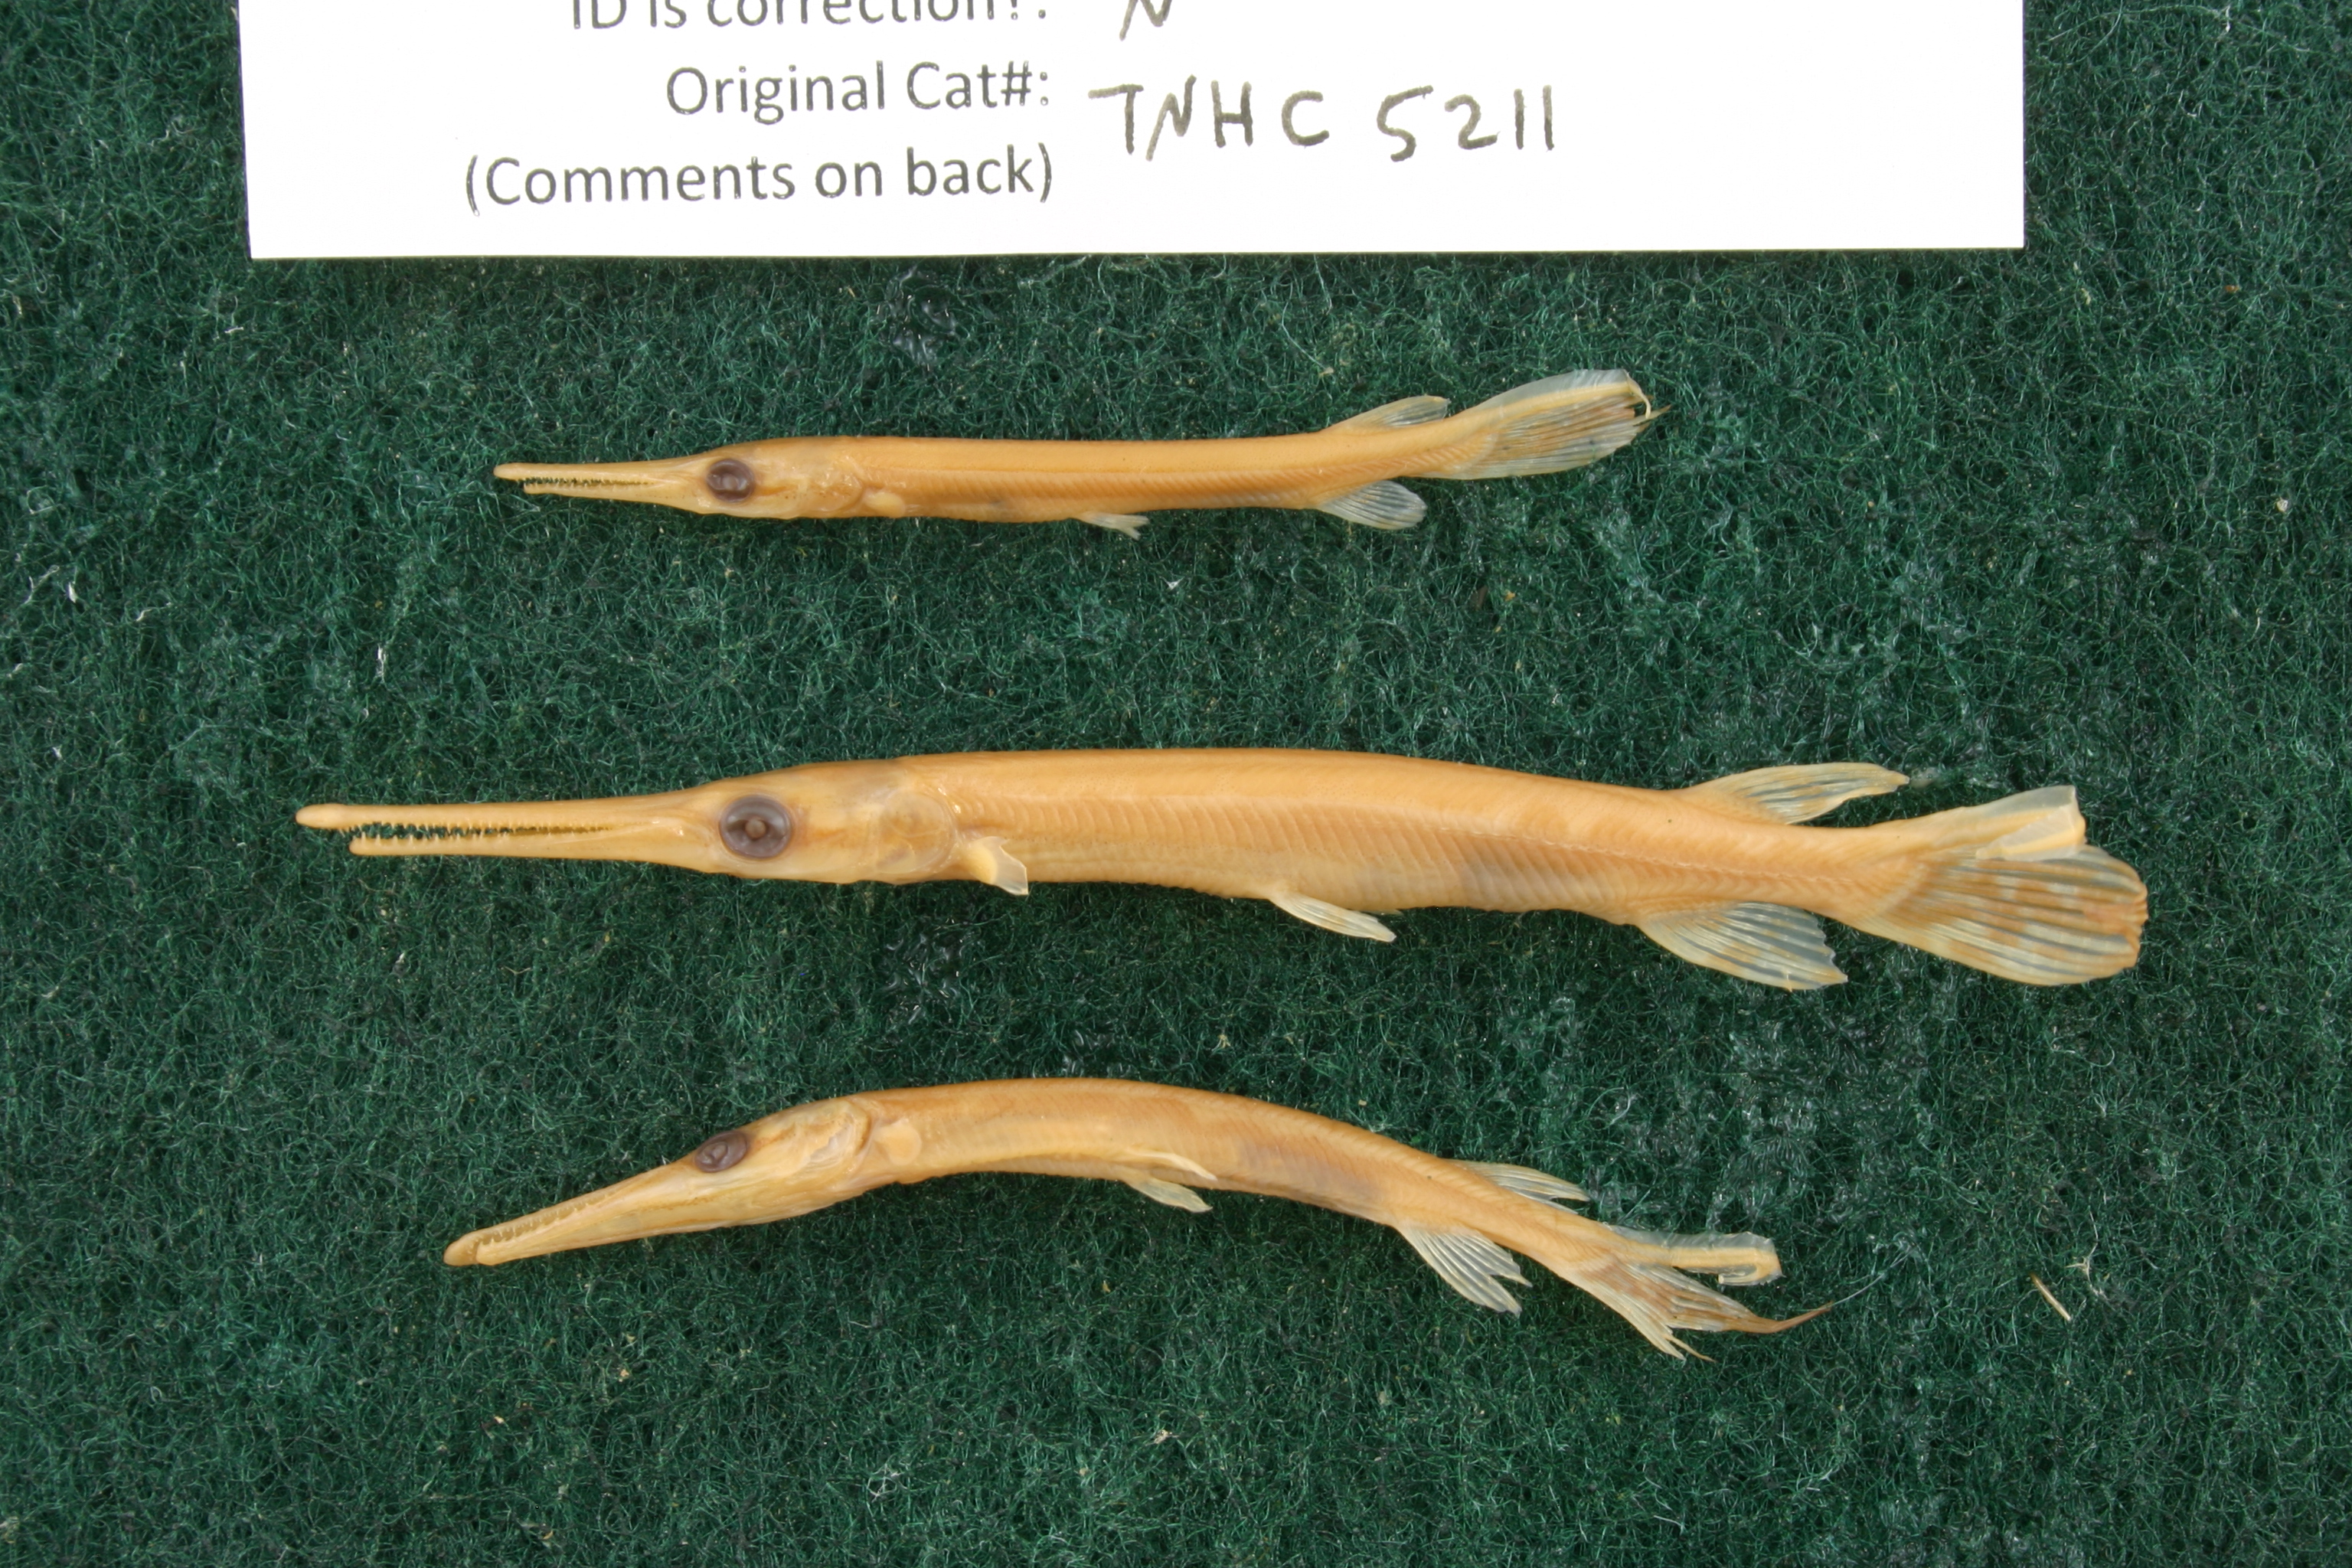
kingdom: Animalia
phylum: Chordata
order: Lepisosteiformes
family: Lepisosteidae
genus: Lepisosteus
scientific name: Lepisosteus osseus
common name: Longnose gar
